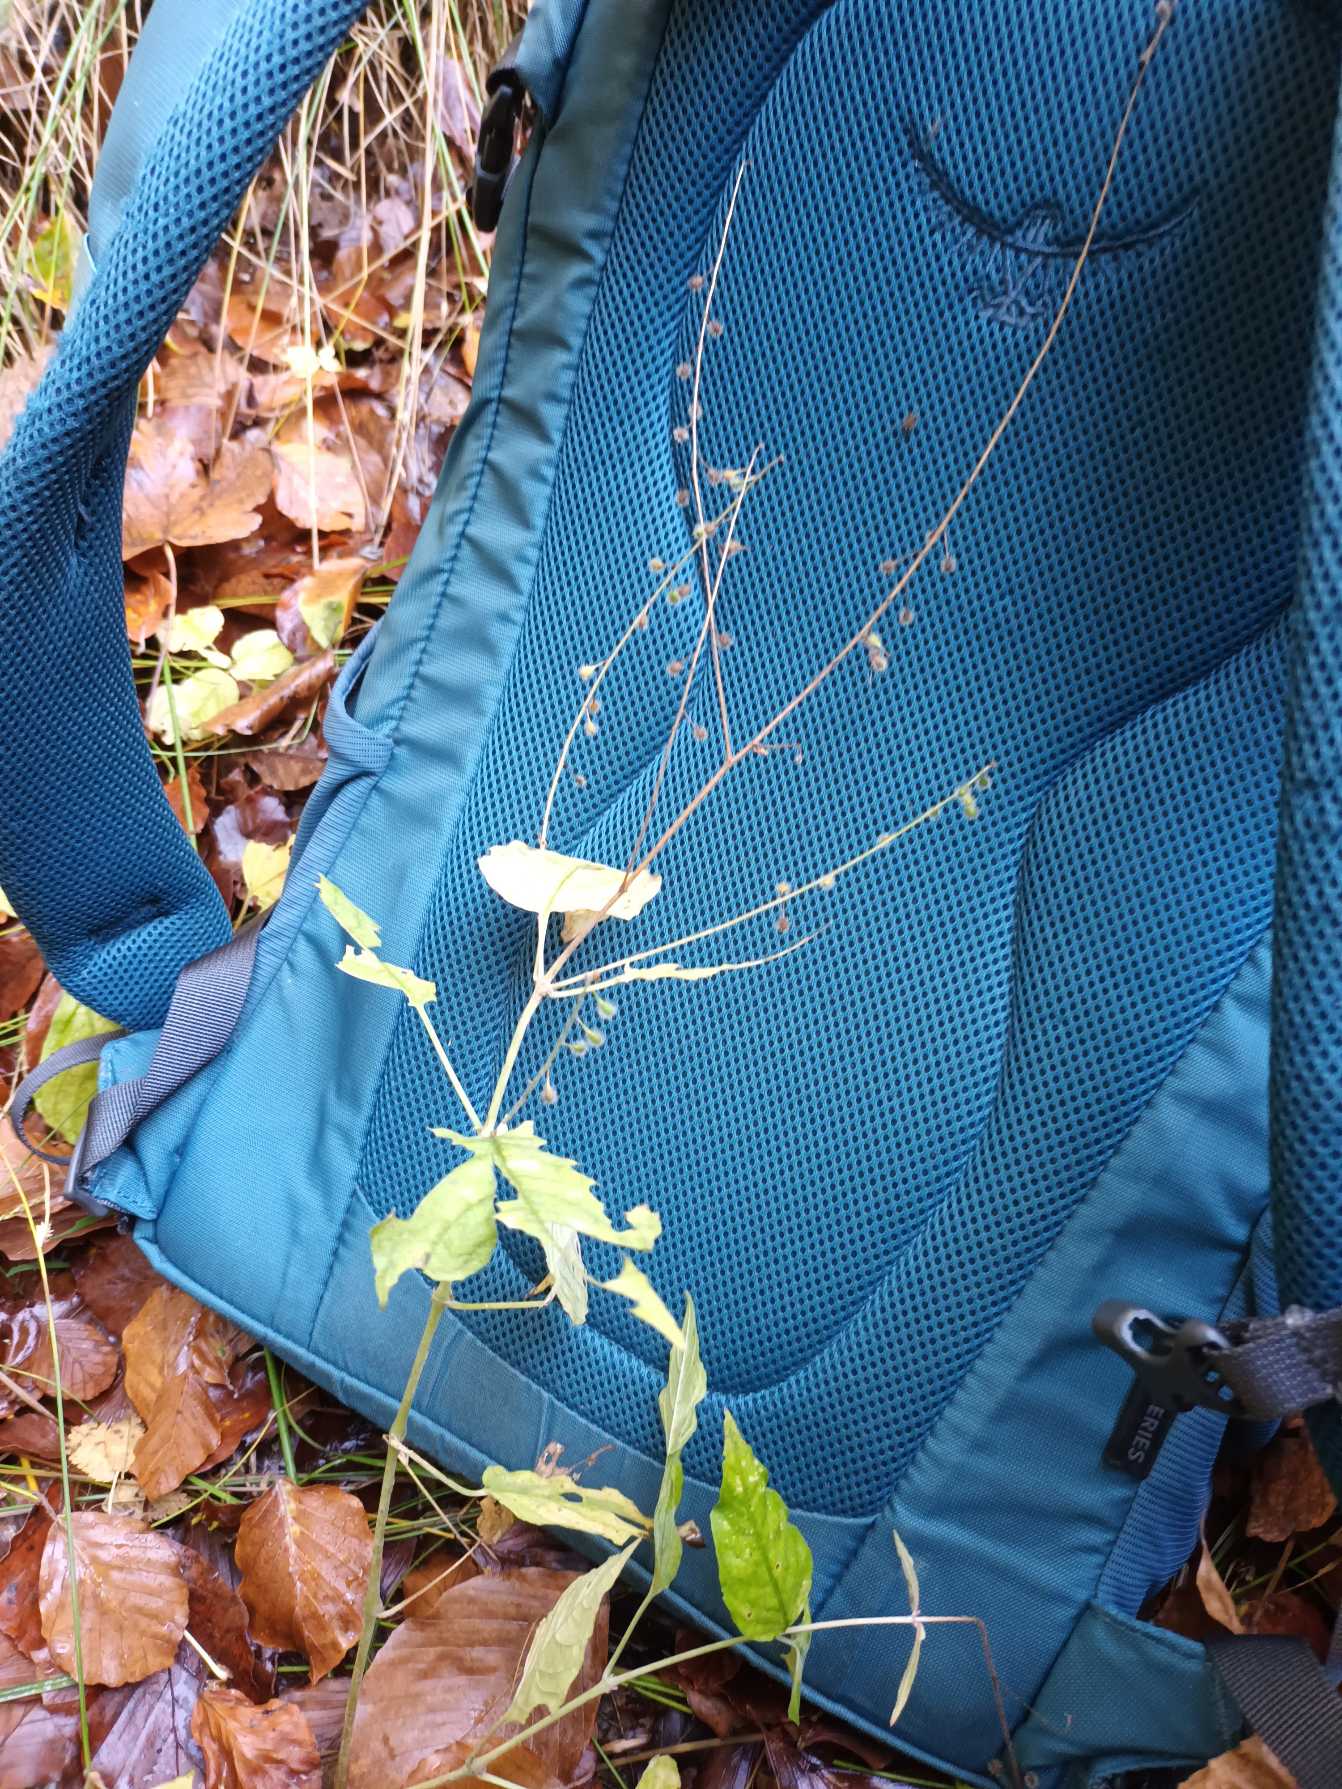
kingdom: Plantae
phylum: Tracheophyta
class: Magnoliopsida
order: Myrtales
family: Onagraceae
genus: Circaea
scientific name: Circaea lutetiana
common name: Dunet steffensurt
